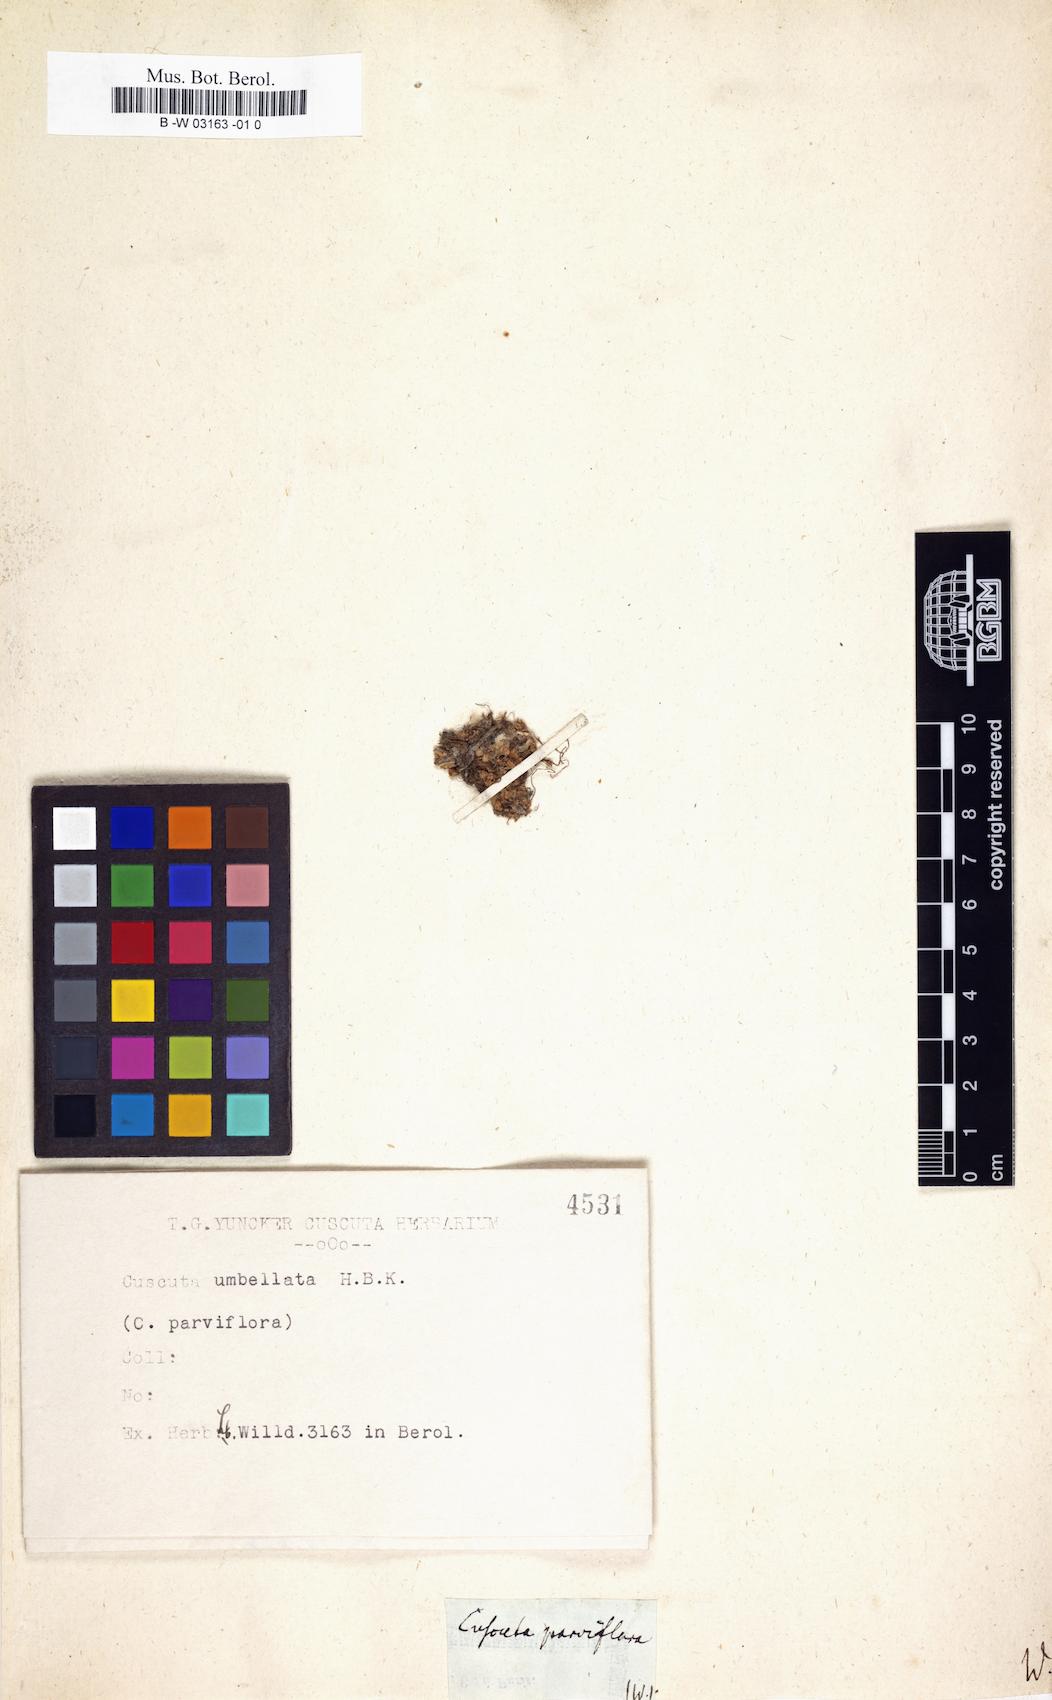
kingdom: Plantae
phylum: Tracheophyta
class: Magnoliopsida
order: Solanales
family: Convolvulaceae
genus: Cuscuta
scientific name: Cuscuta parviflora
